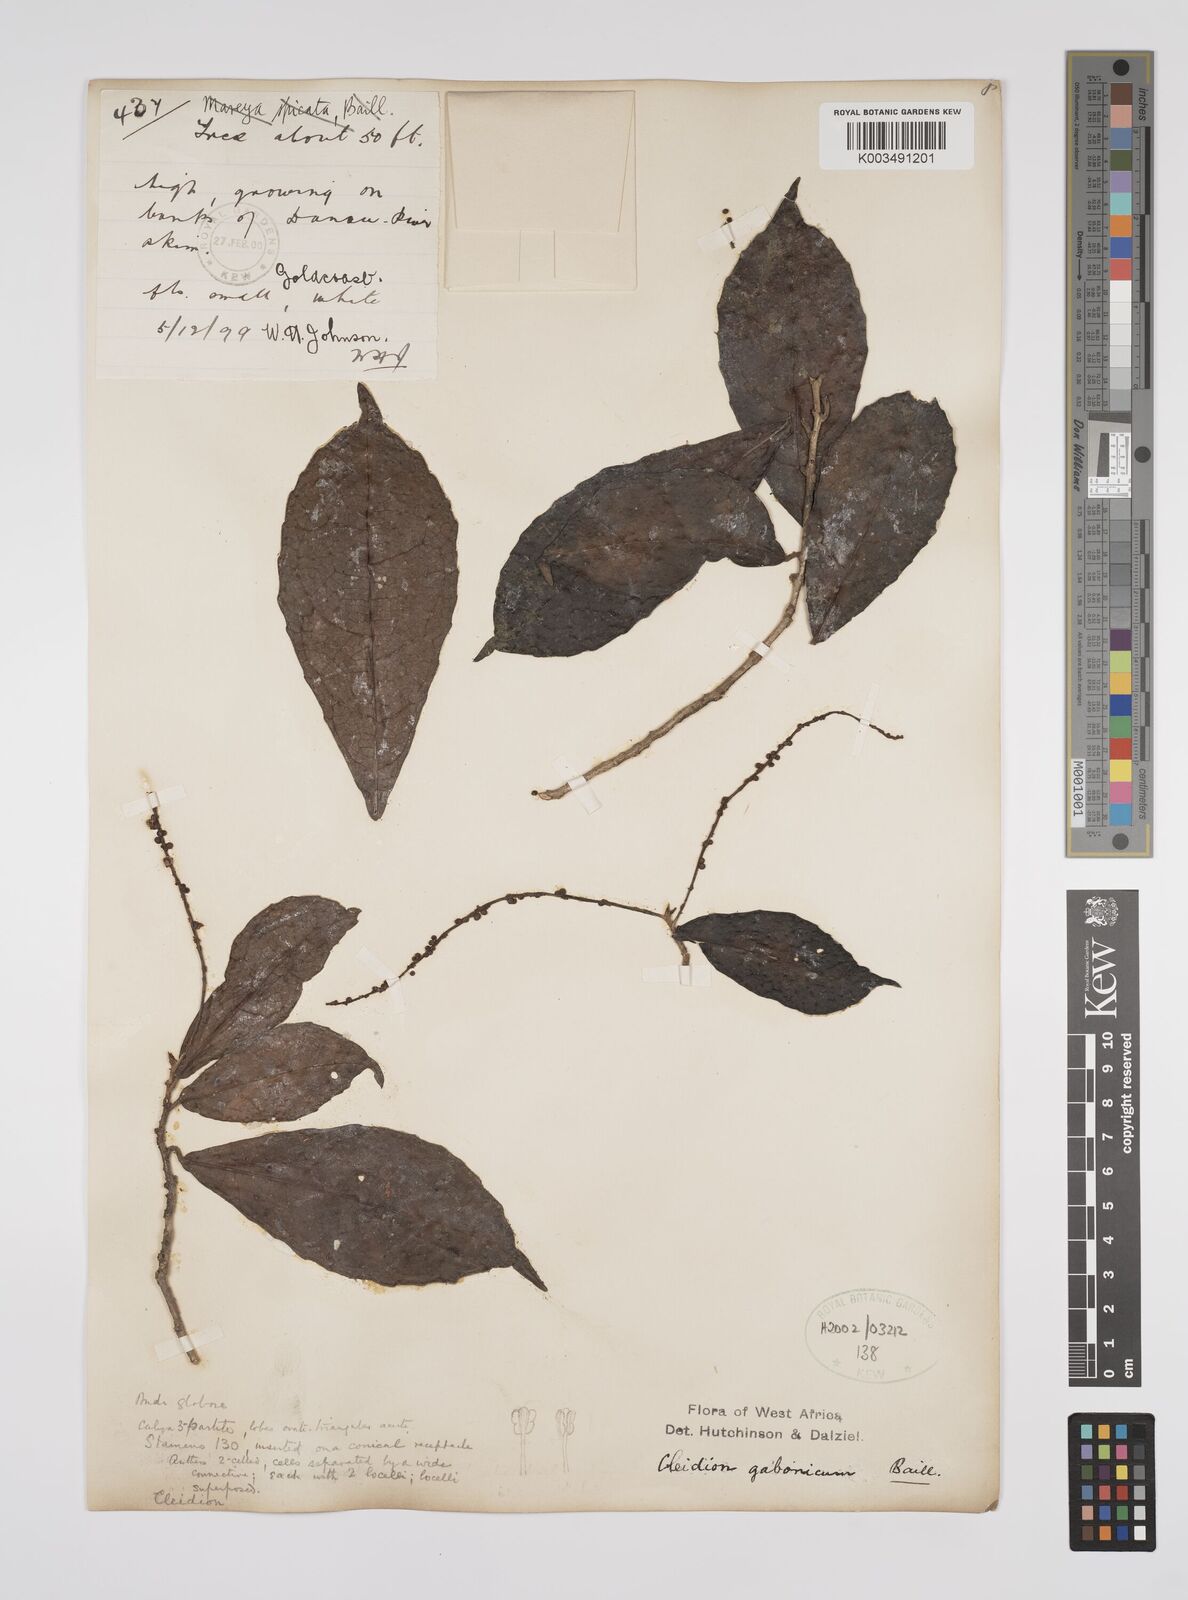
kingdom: Plantae
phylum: Tracheophyta
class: Magnoliopsida
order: Malpighiales
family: Euphorbiaceae
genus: Cleidion
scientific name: Cleidion gabonicum
